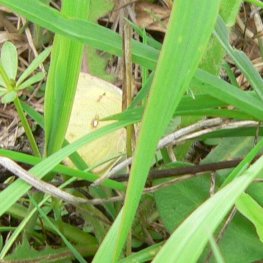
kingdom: Animalia
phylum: Arthropoda
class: Insecta
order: Lepidoptera
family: Pieridae
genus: Colias
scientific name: Colias philodice
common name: Clouded Sulphur
